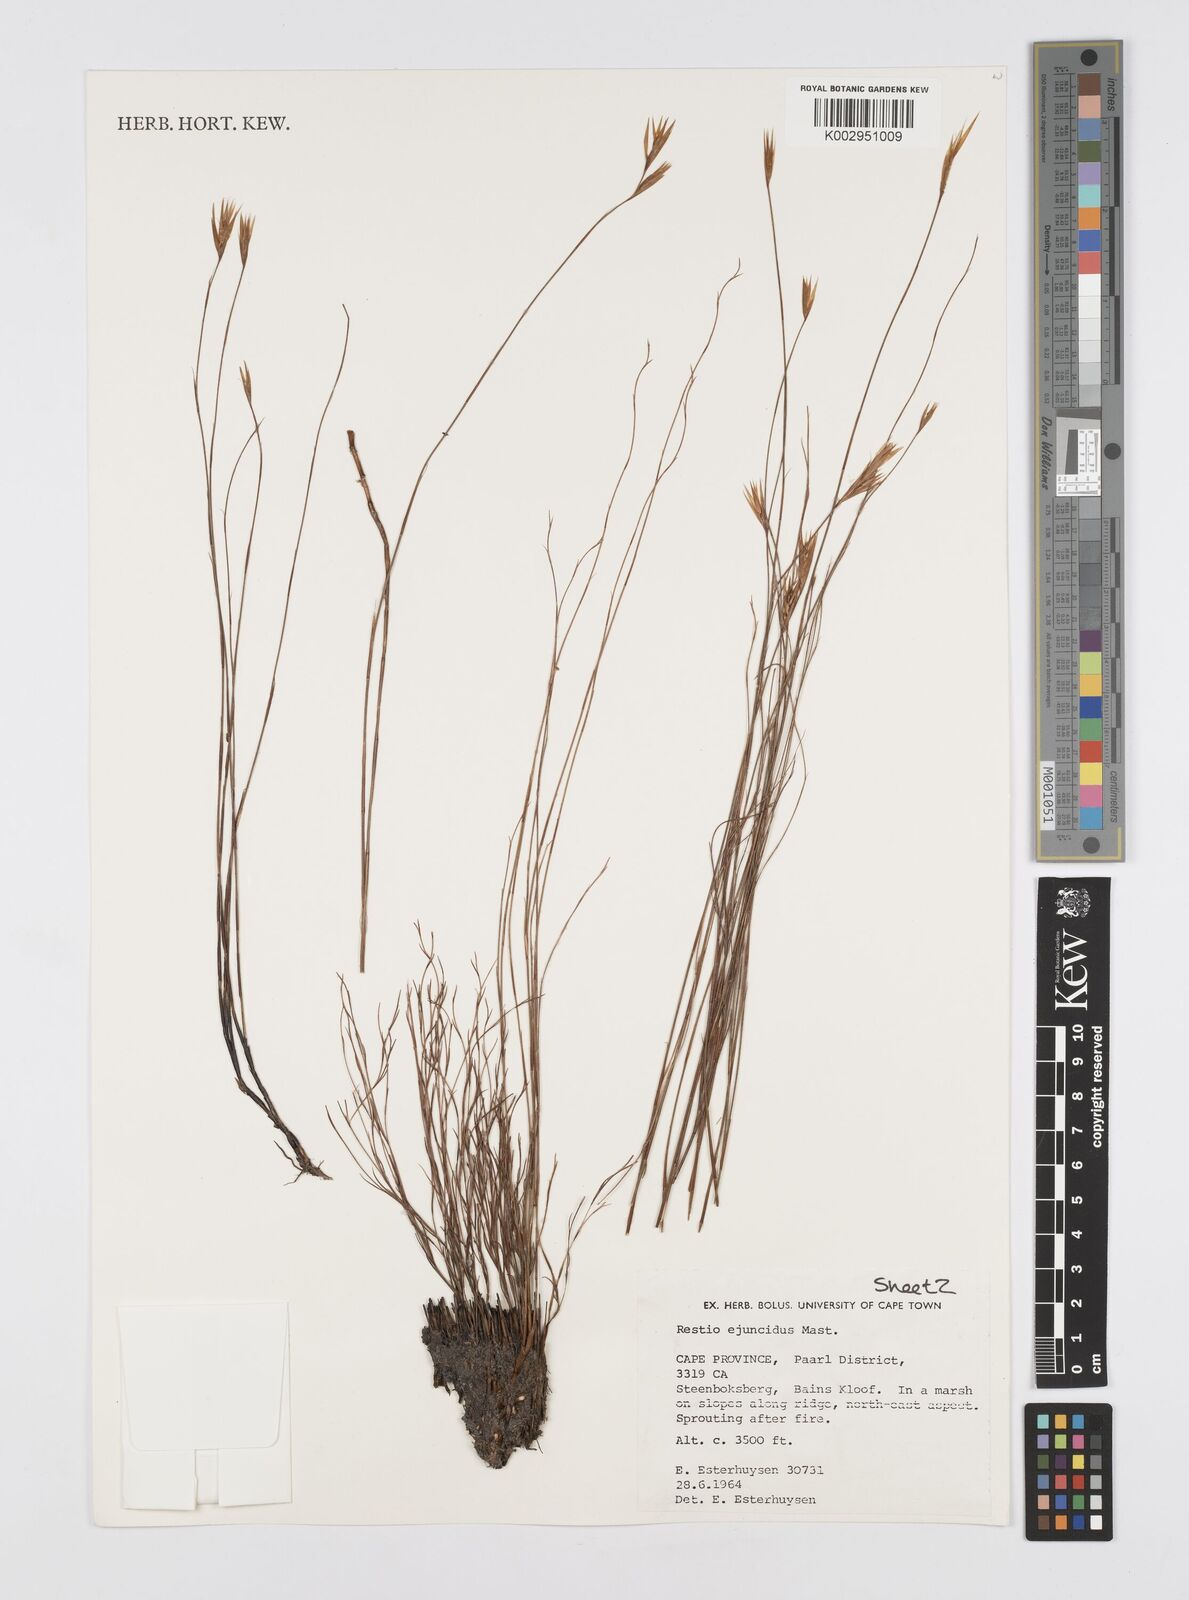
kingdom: Plantae
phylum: Tracheophyta
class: Liliopsida
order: Poales
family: Restionaceae
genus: Restio
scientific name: Restio ejuncidus
